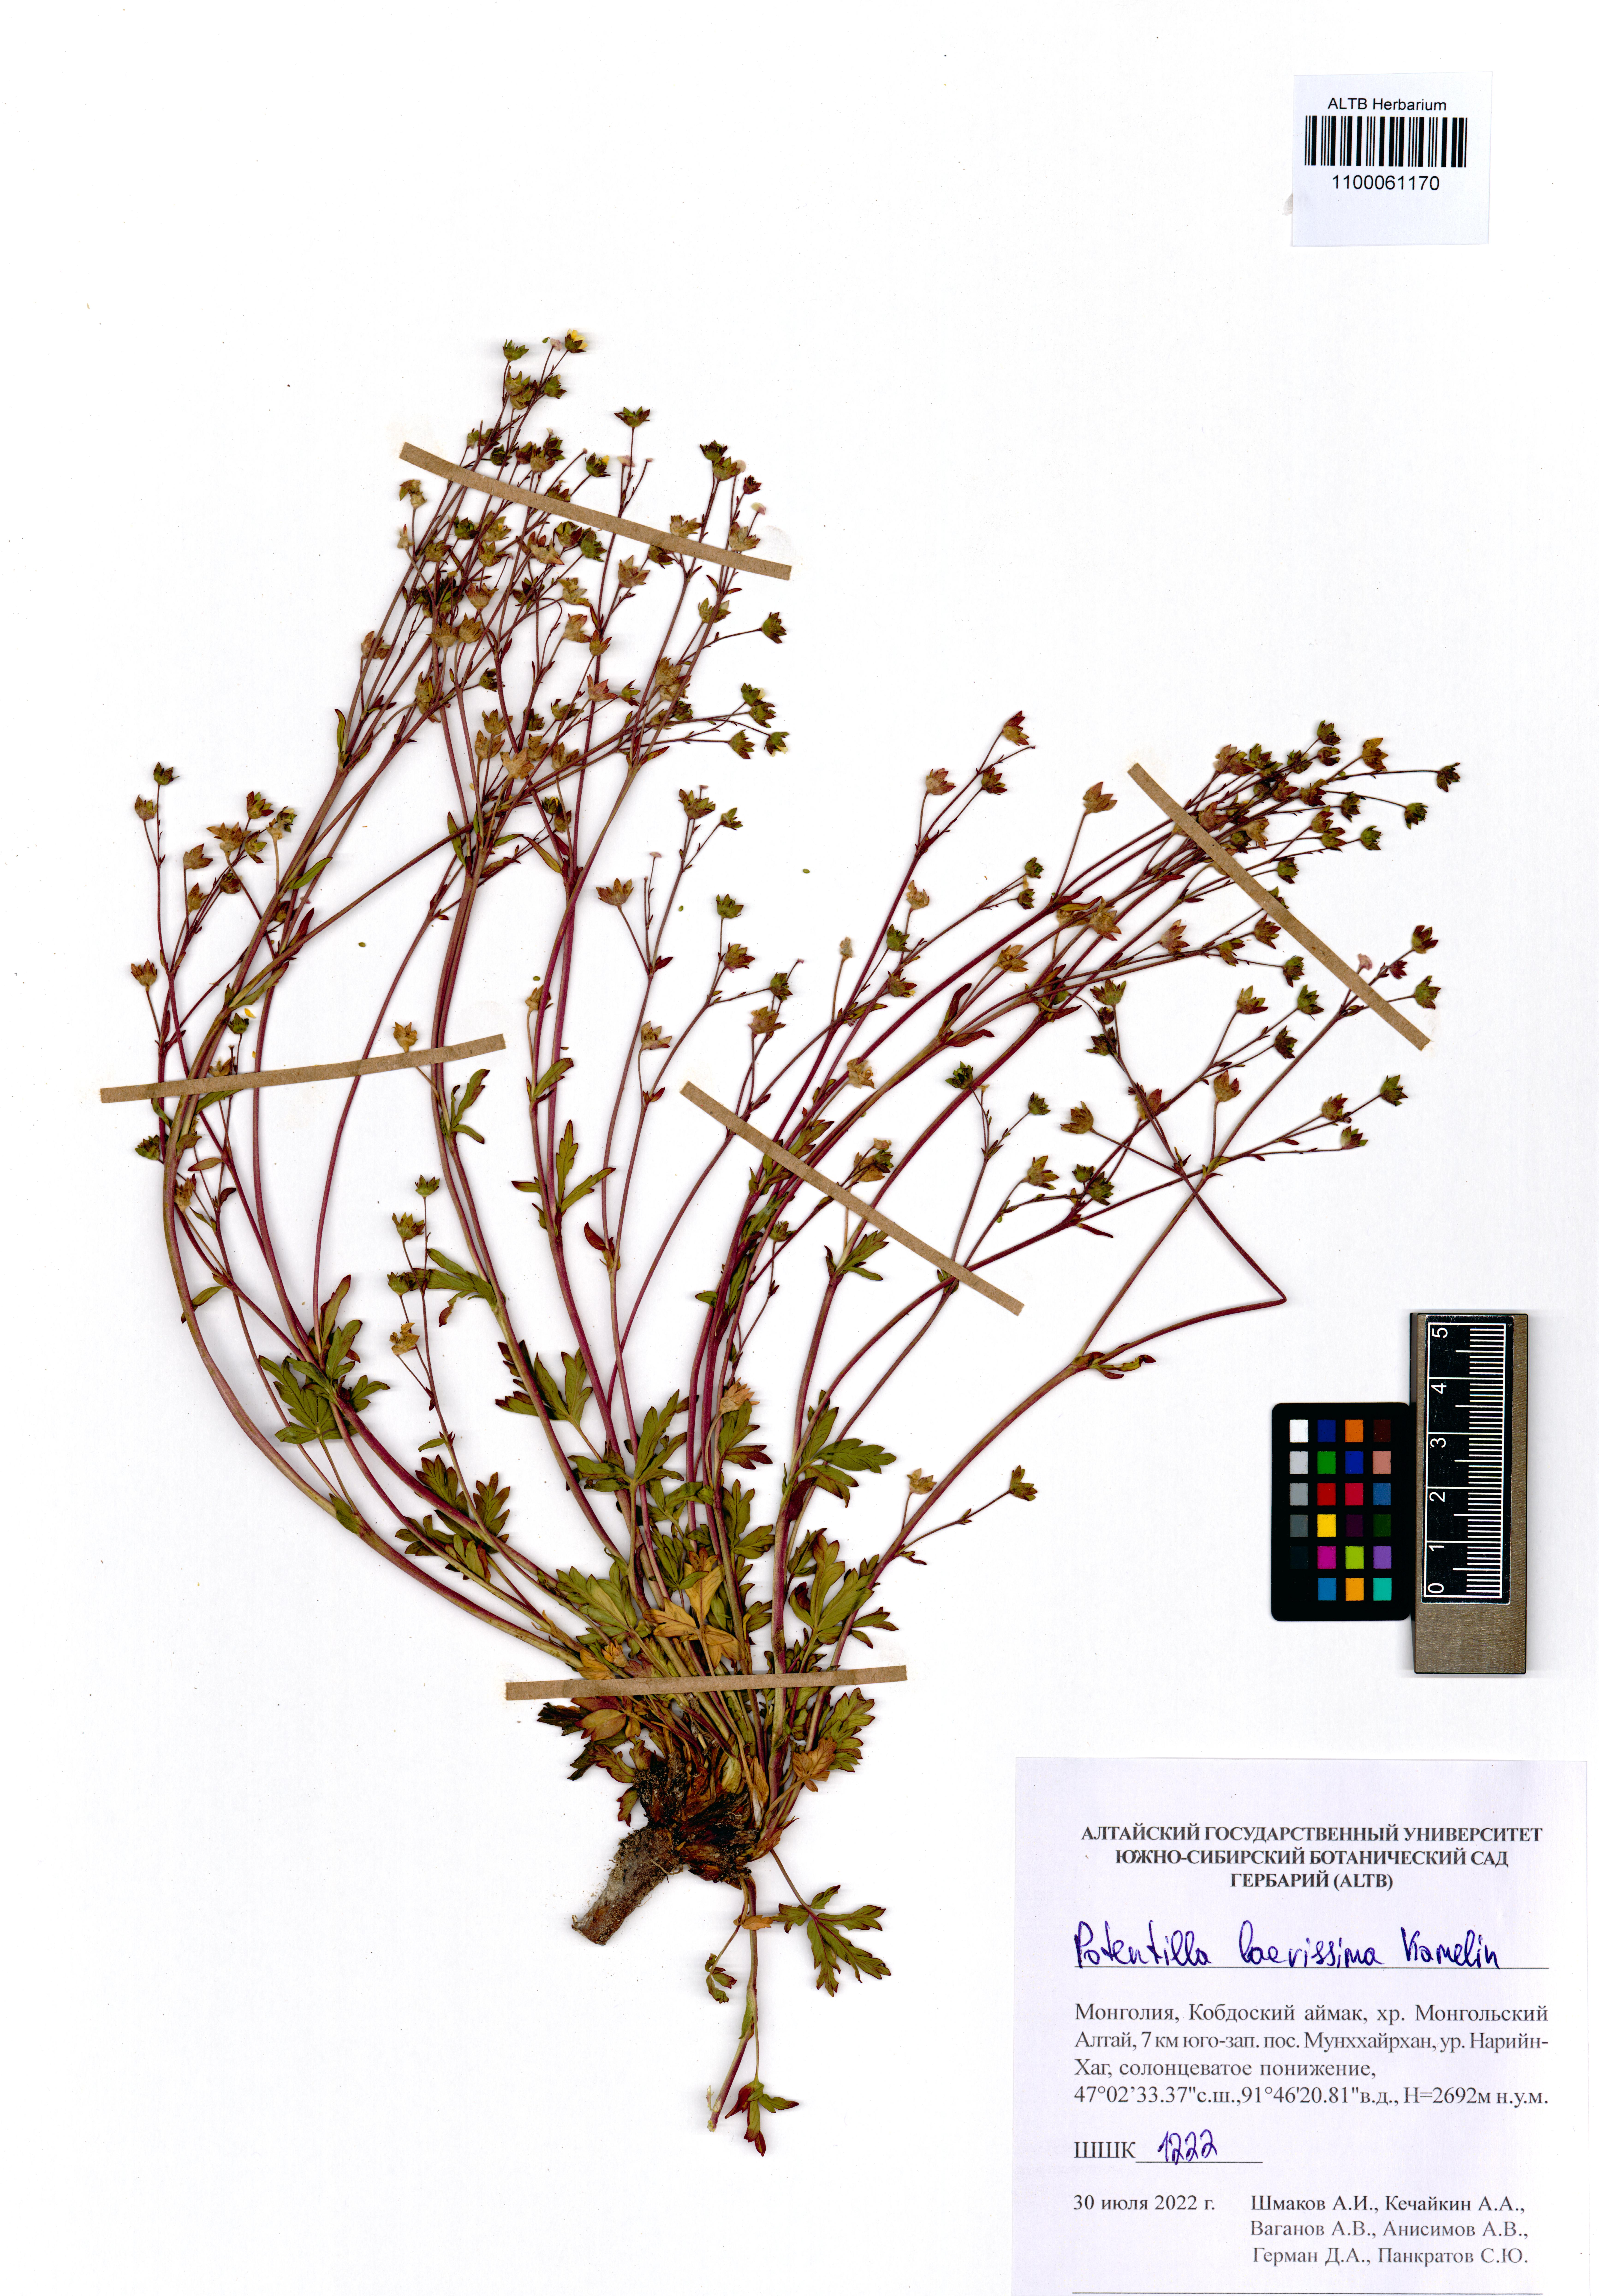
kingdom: Plantae
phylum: Tracheophyta
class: Magnoliopsida
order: Rosales
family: Rosaceae
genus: Potentilla
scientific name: Potentilla laevissima
